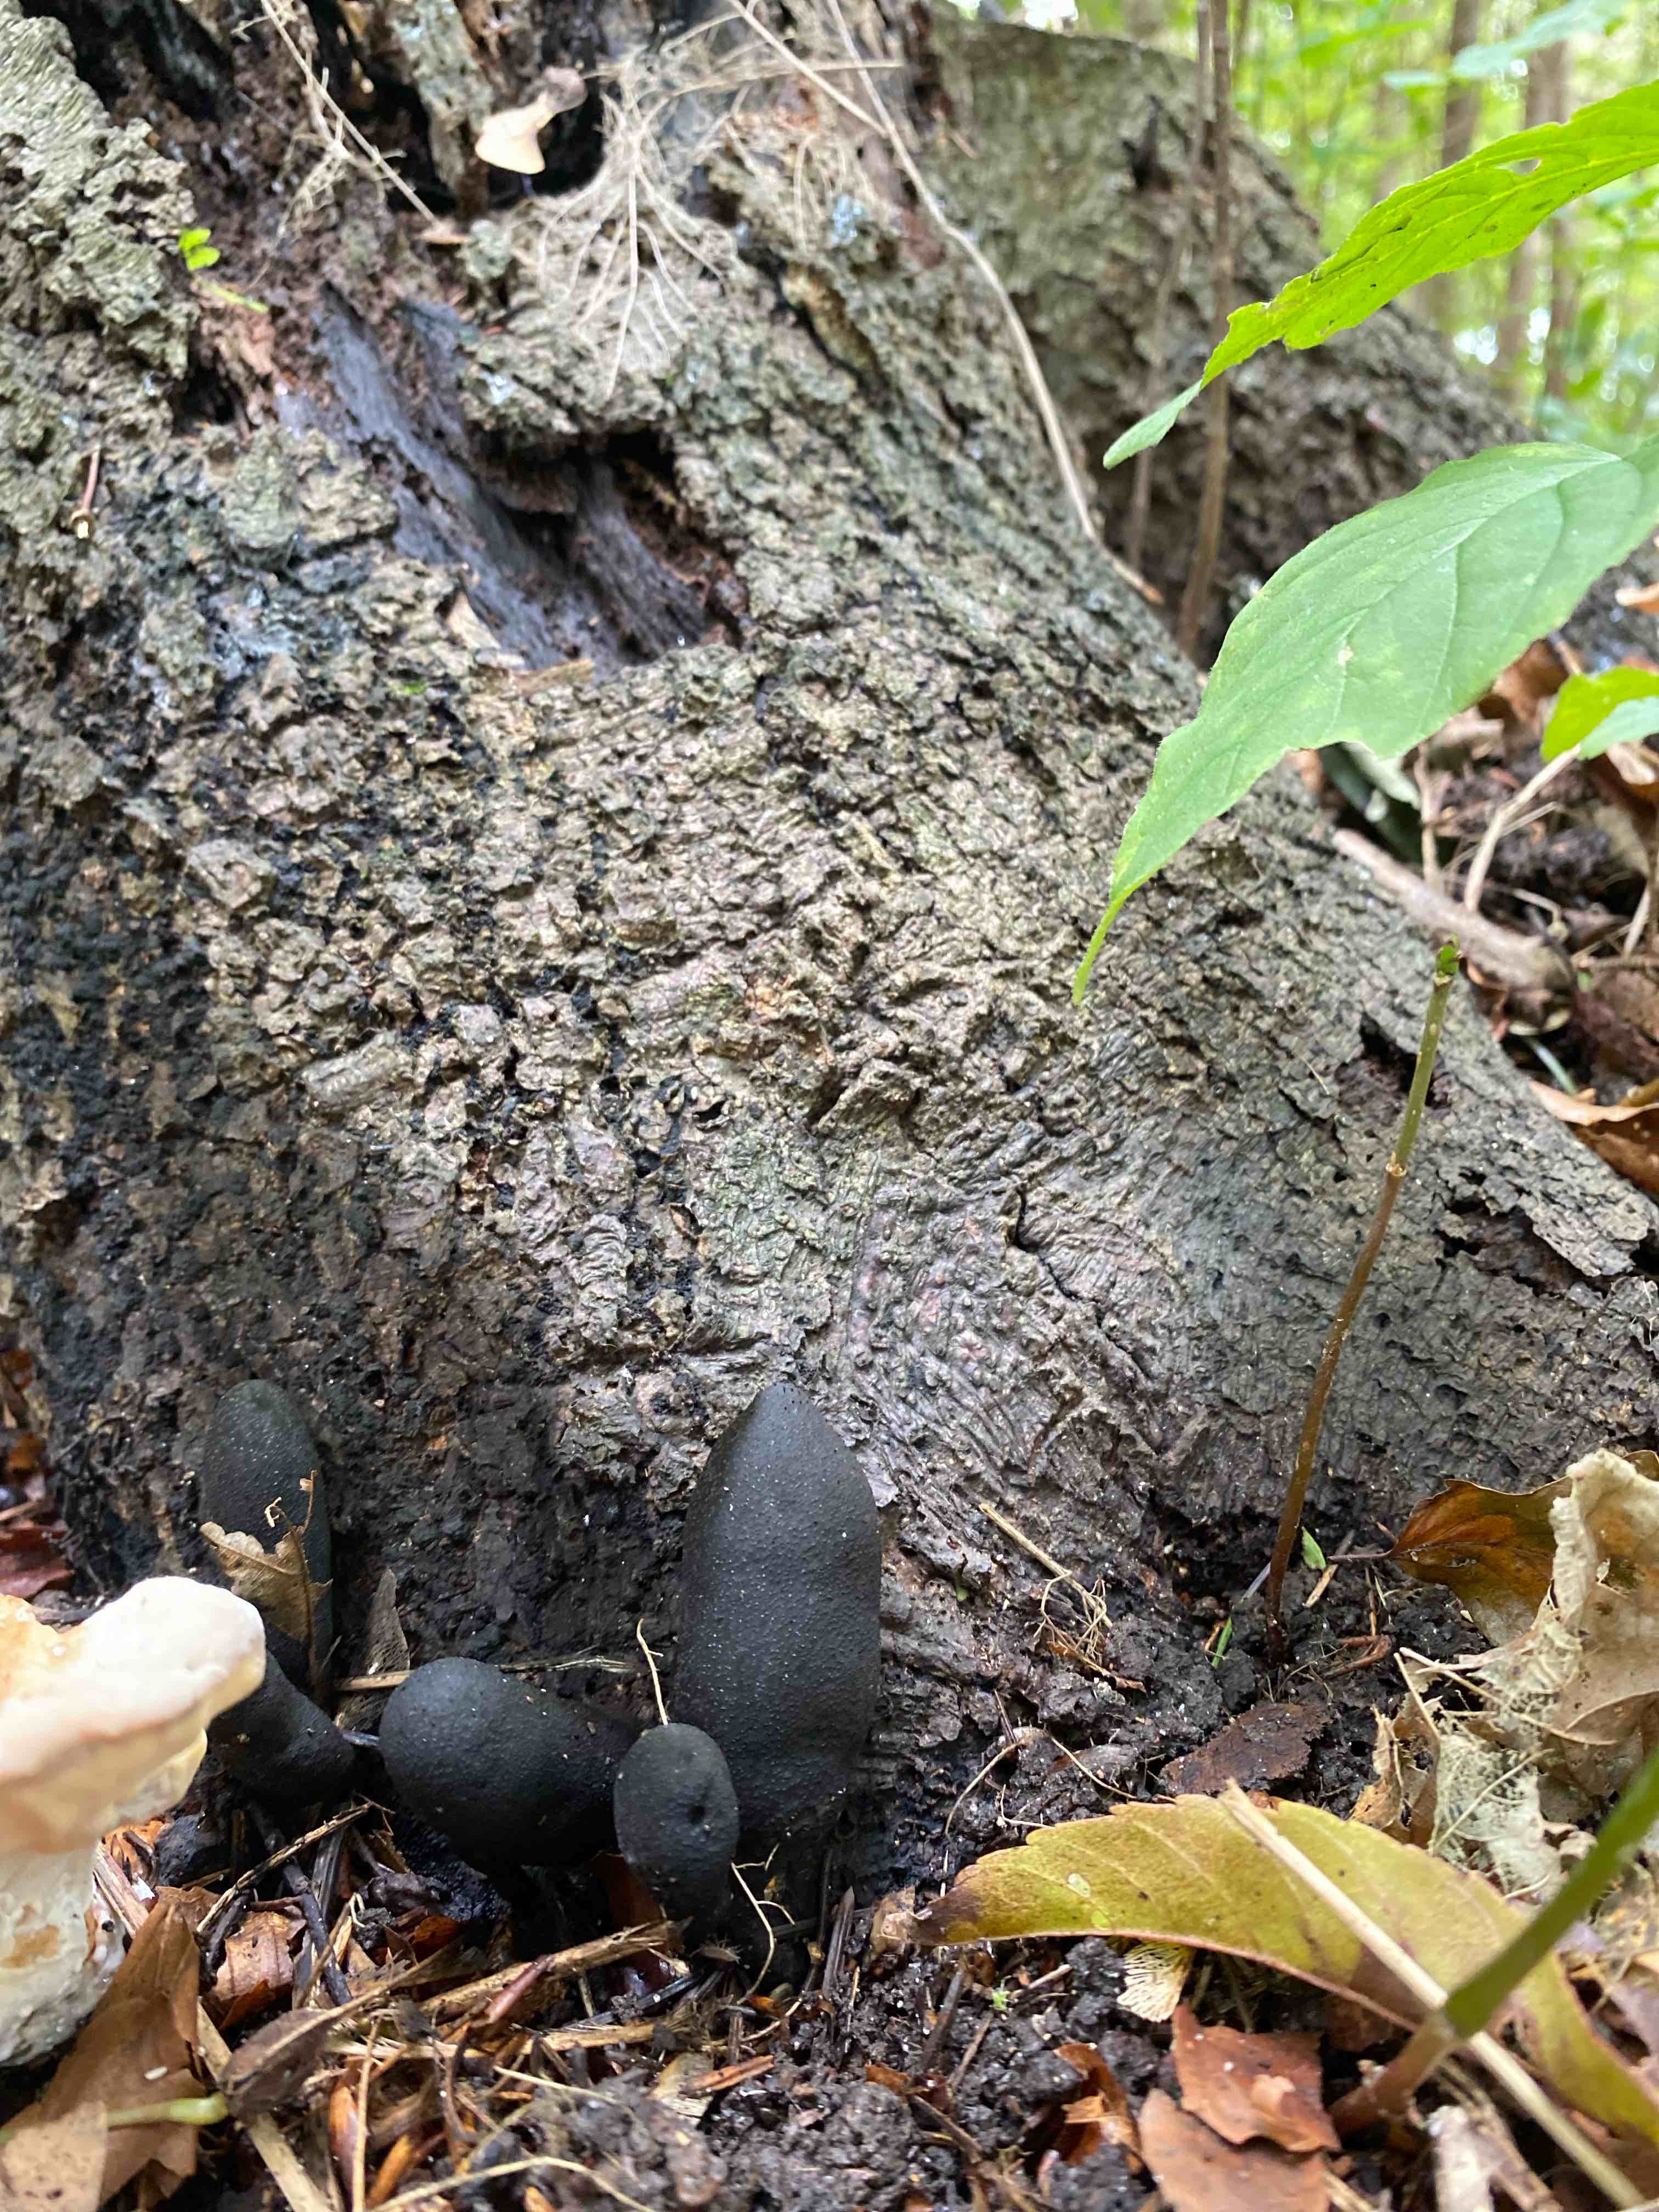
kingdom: Fungi
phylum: Ascomycota
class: Sordariomycetes
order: Xylariales
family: Xylariaceae
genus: Xylaria
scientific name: Xylaria polymorpha
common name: kølle-stødsvamp
